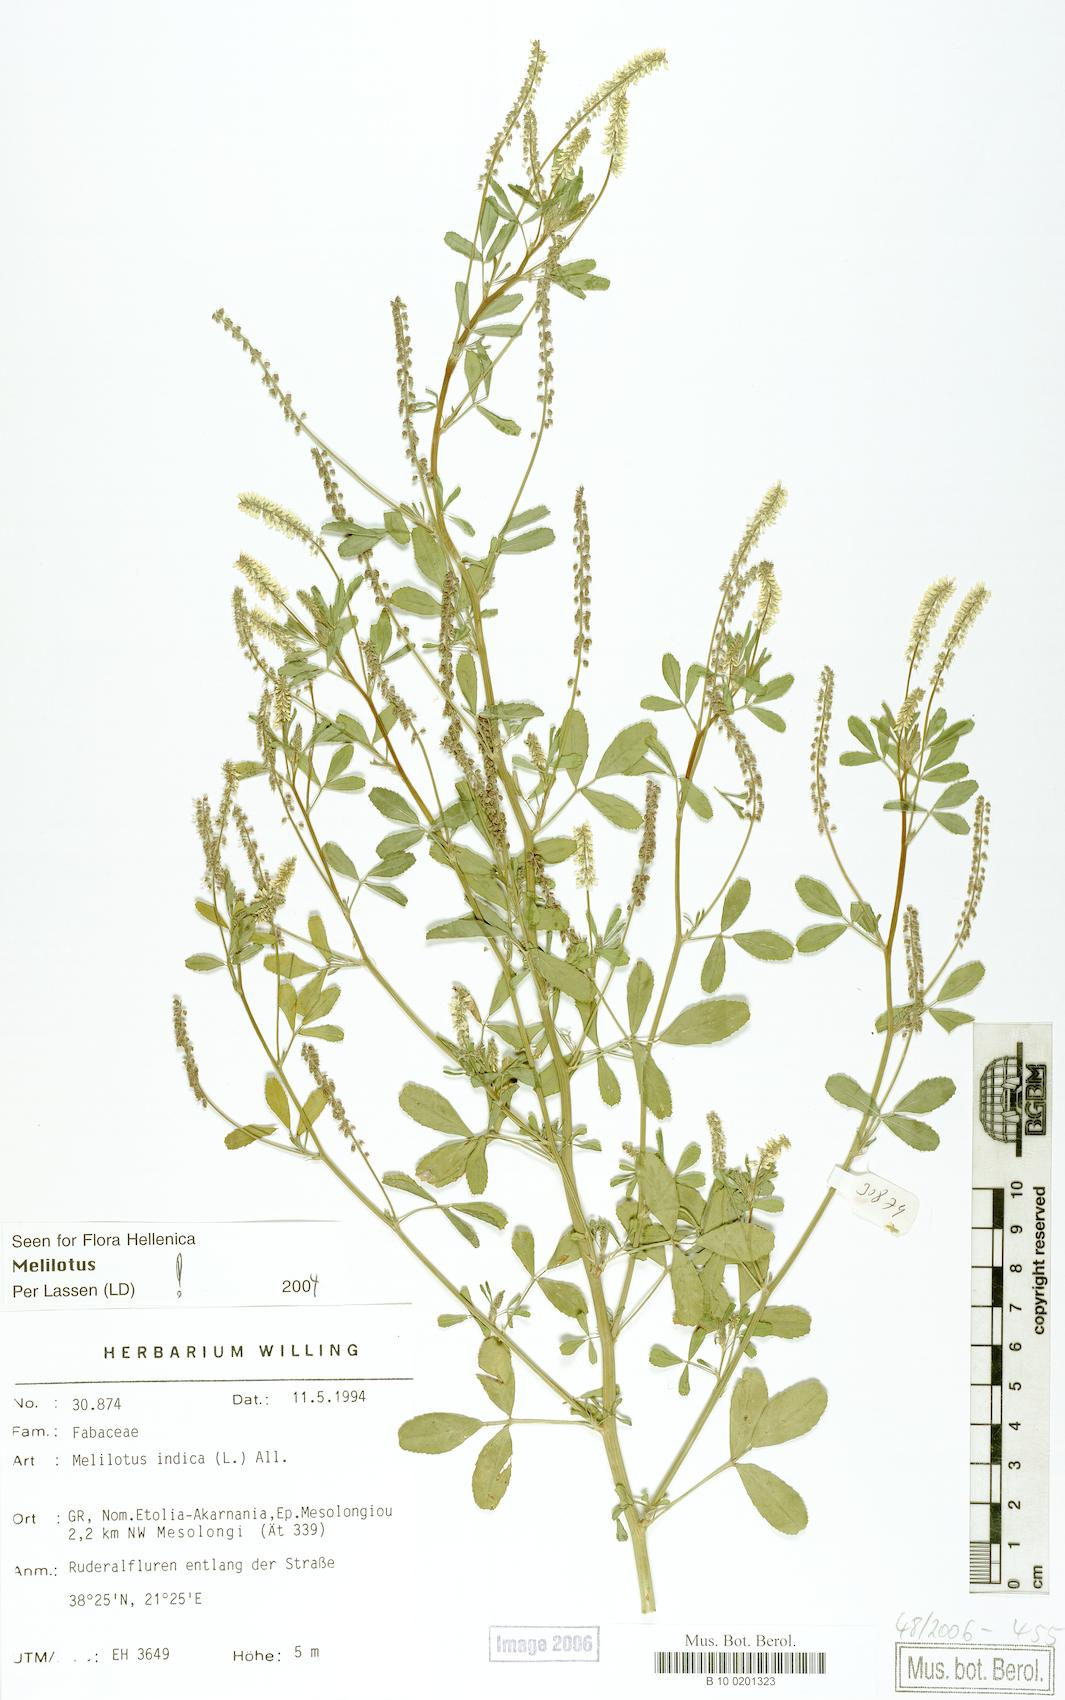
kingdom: Plantae
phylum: Tracheophyta
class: Magnoliopsida
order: Fabales
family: Fabaceae
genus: Melilotus
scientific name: Melilotus indicus
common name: Small melilot
